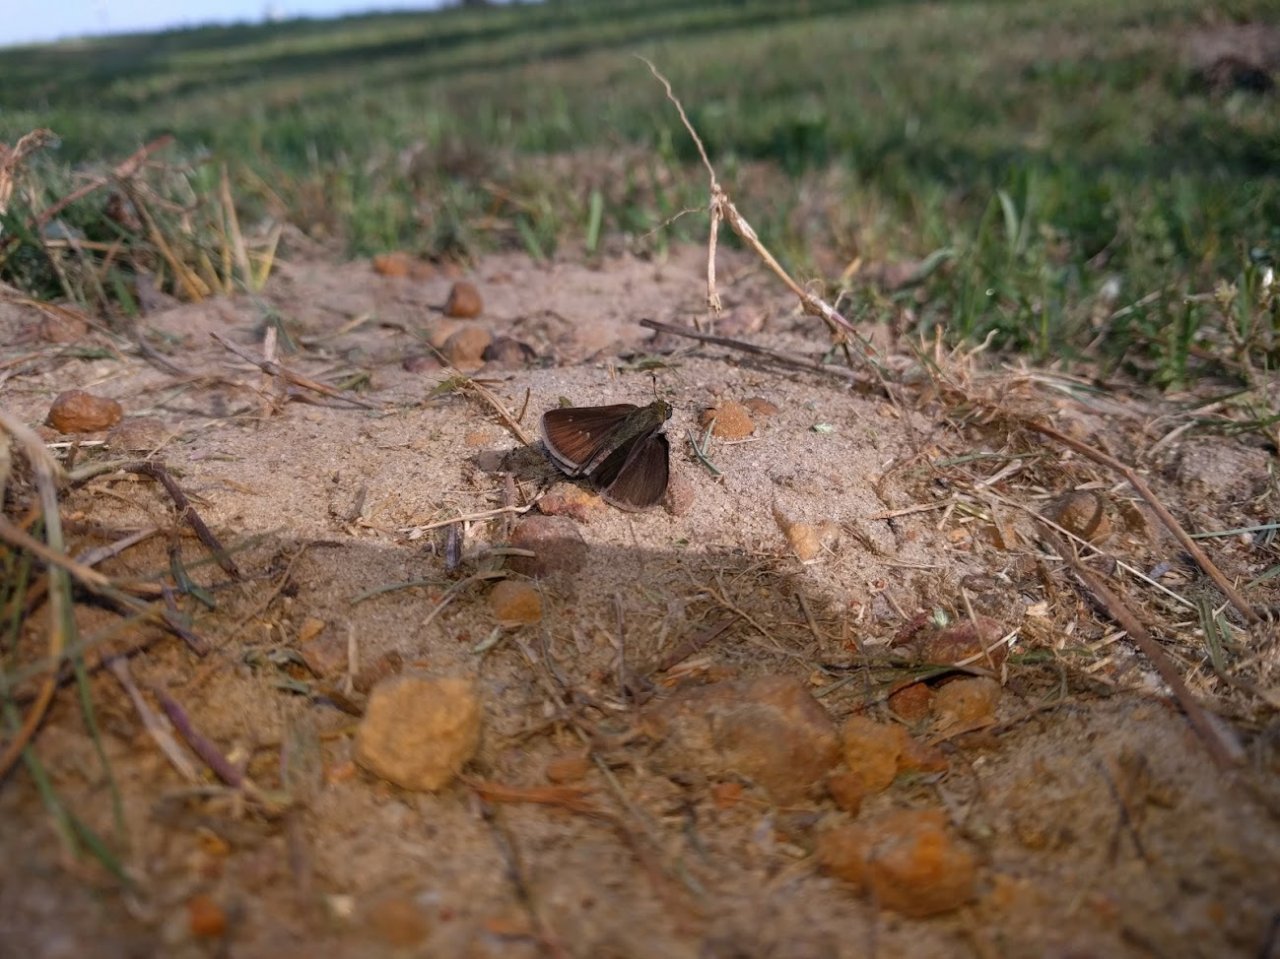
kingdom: Animalia
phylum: Arthropoda
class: Insecta
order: Lepidoptera
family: Hesperiidae
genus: Euphyes
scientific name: Euphyes vestris
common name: Dun Skipper
